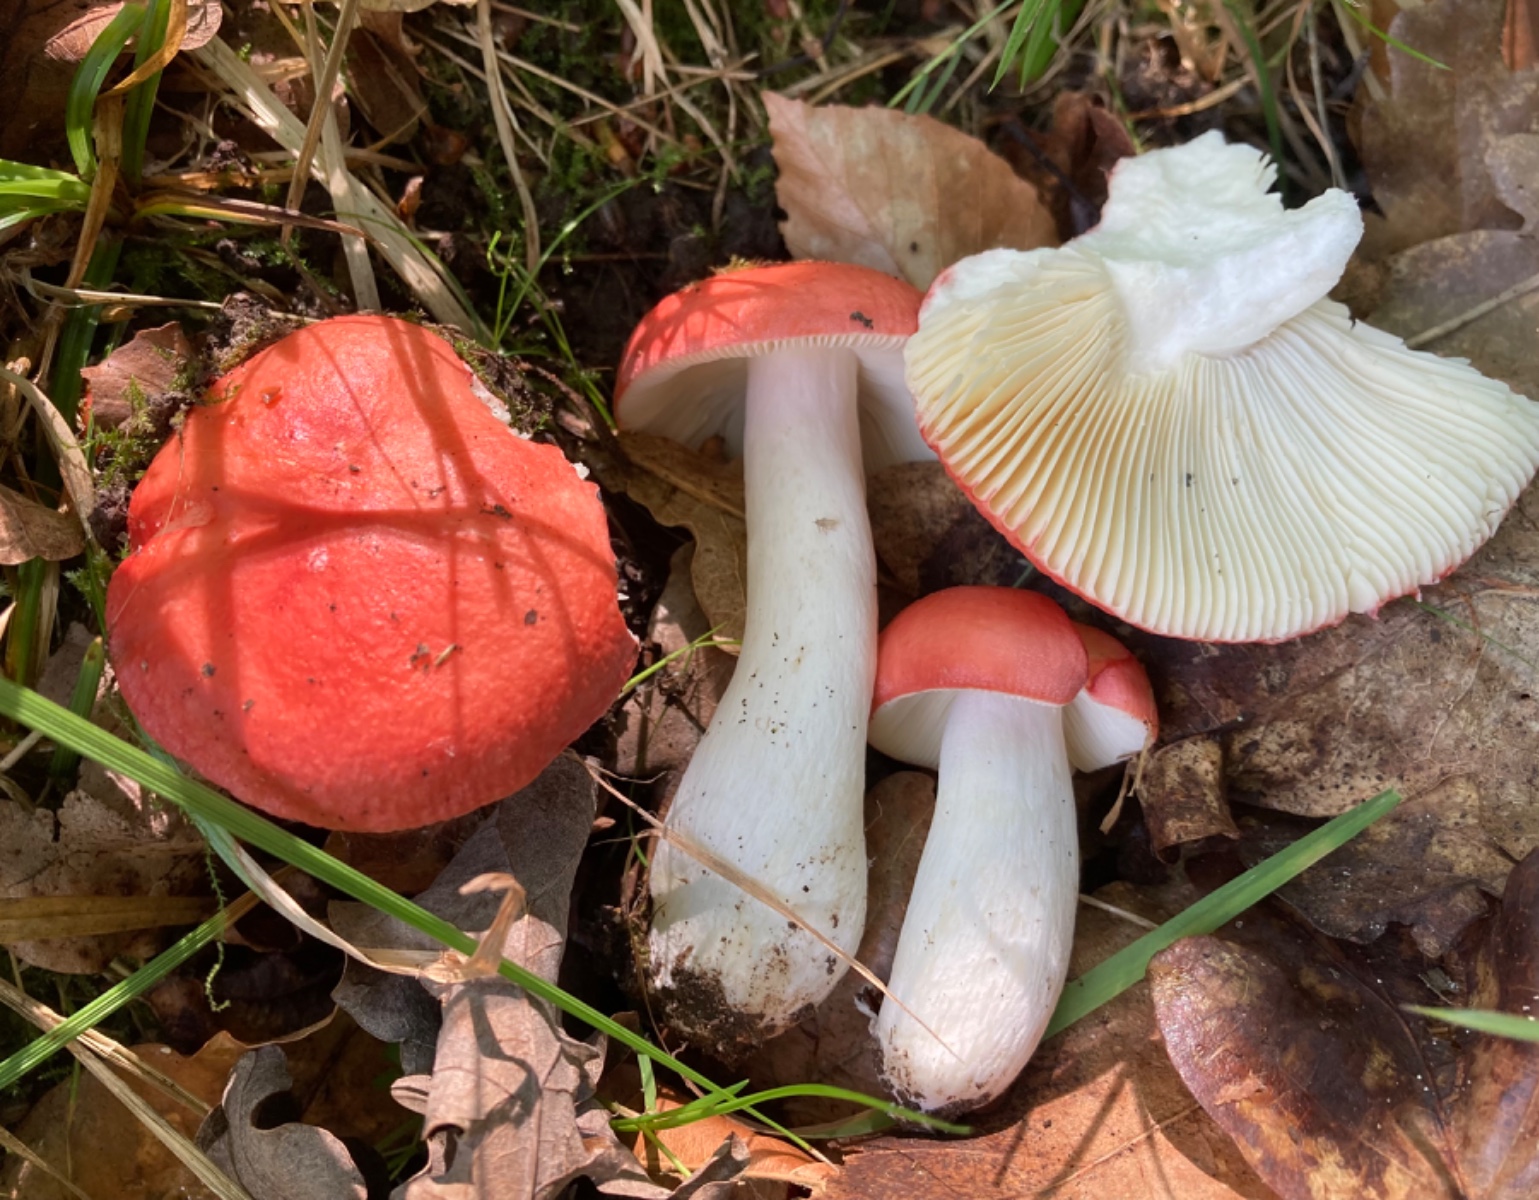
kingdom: Fungi
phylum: Basidiomycota
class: Agaricomycetes
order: Russulales
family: Russulaceae
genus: Russula
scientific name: Russula pseudointegra
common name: cinnoberrød skørhat
